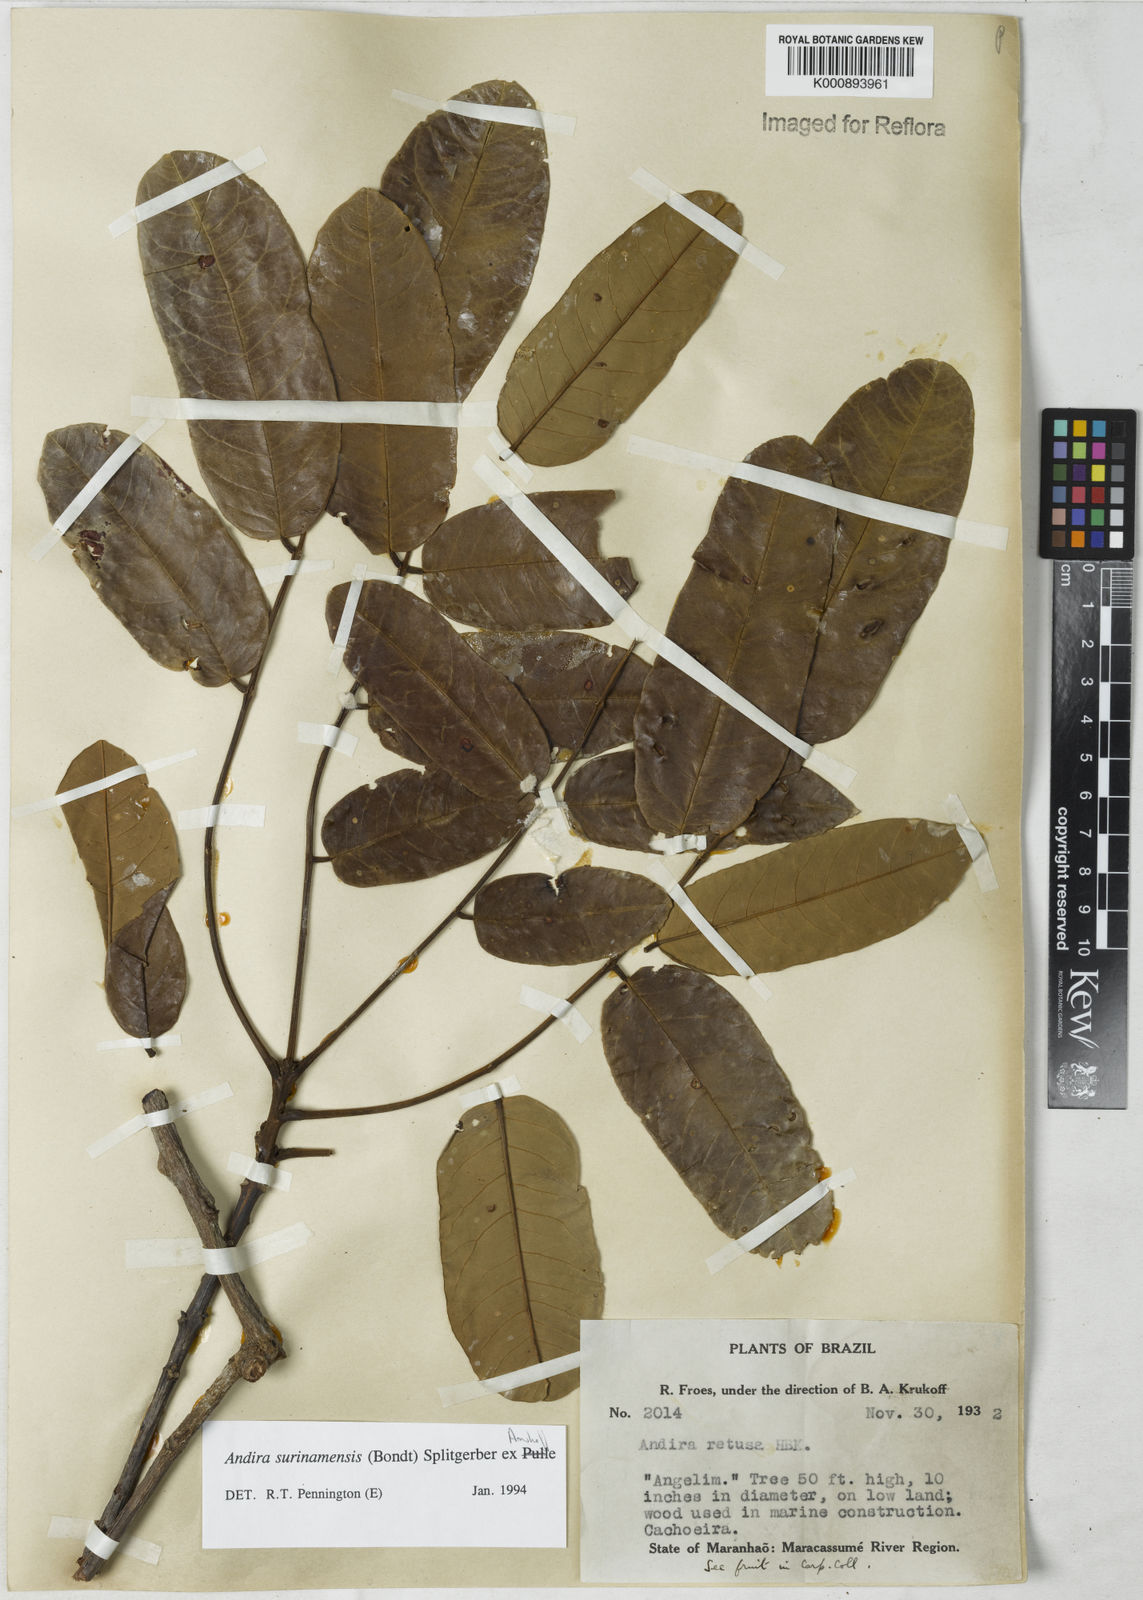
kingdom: Plantae
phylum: Tracheophyta
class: Magnoliopsida
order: Fabales
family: Fabaceae
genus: Andira
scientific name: Andira
